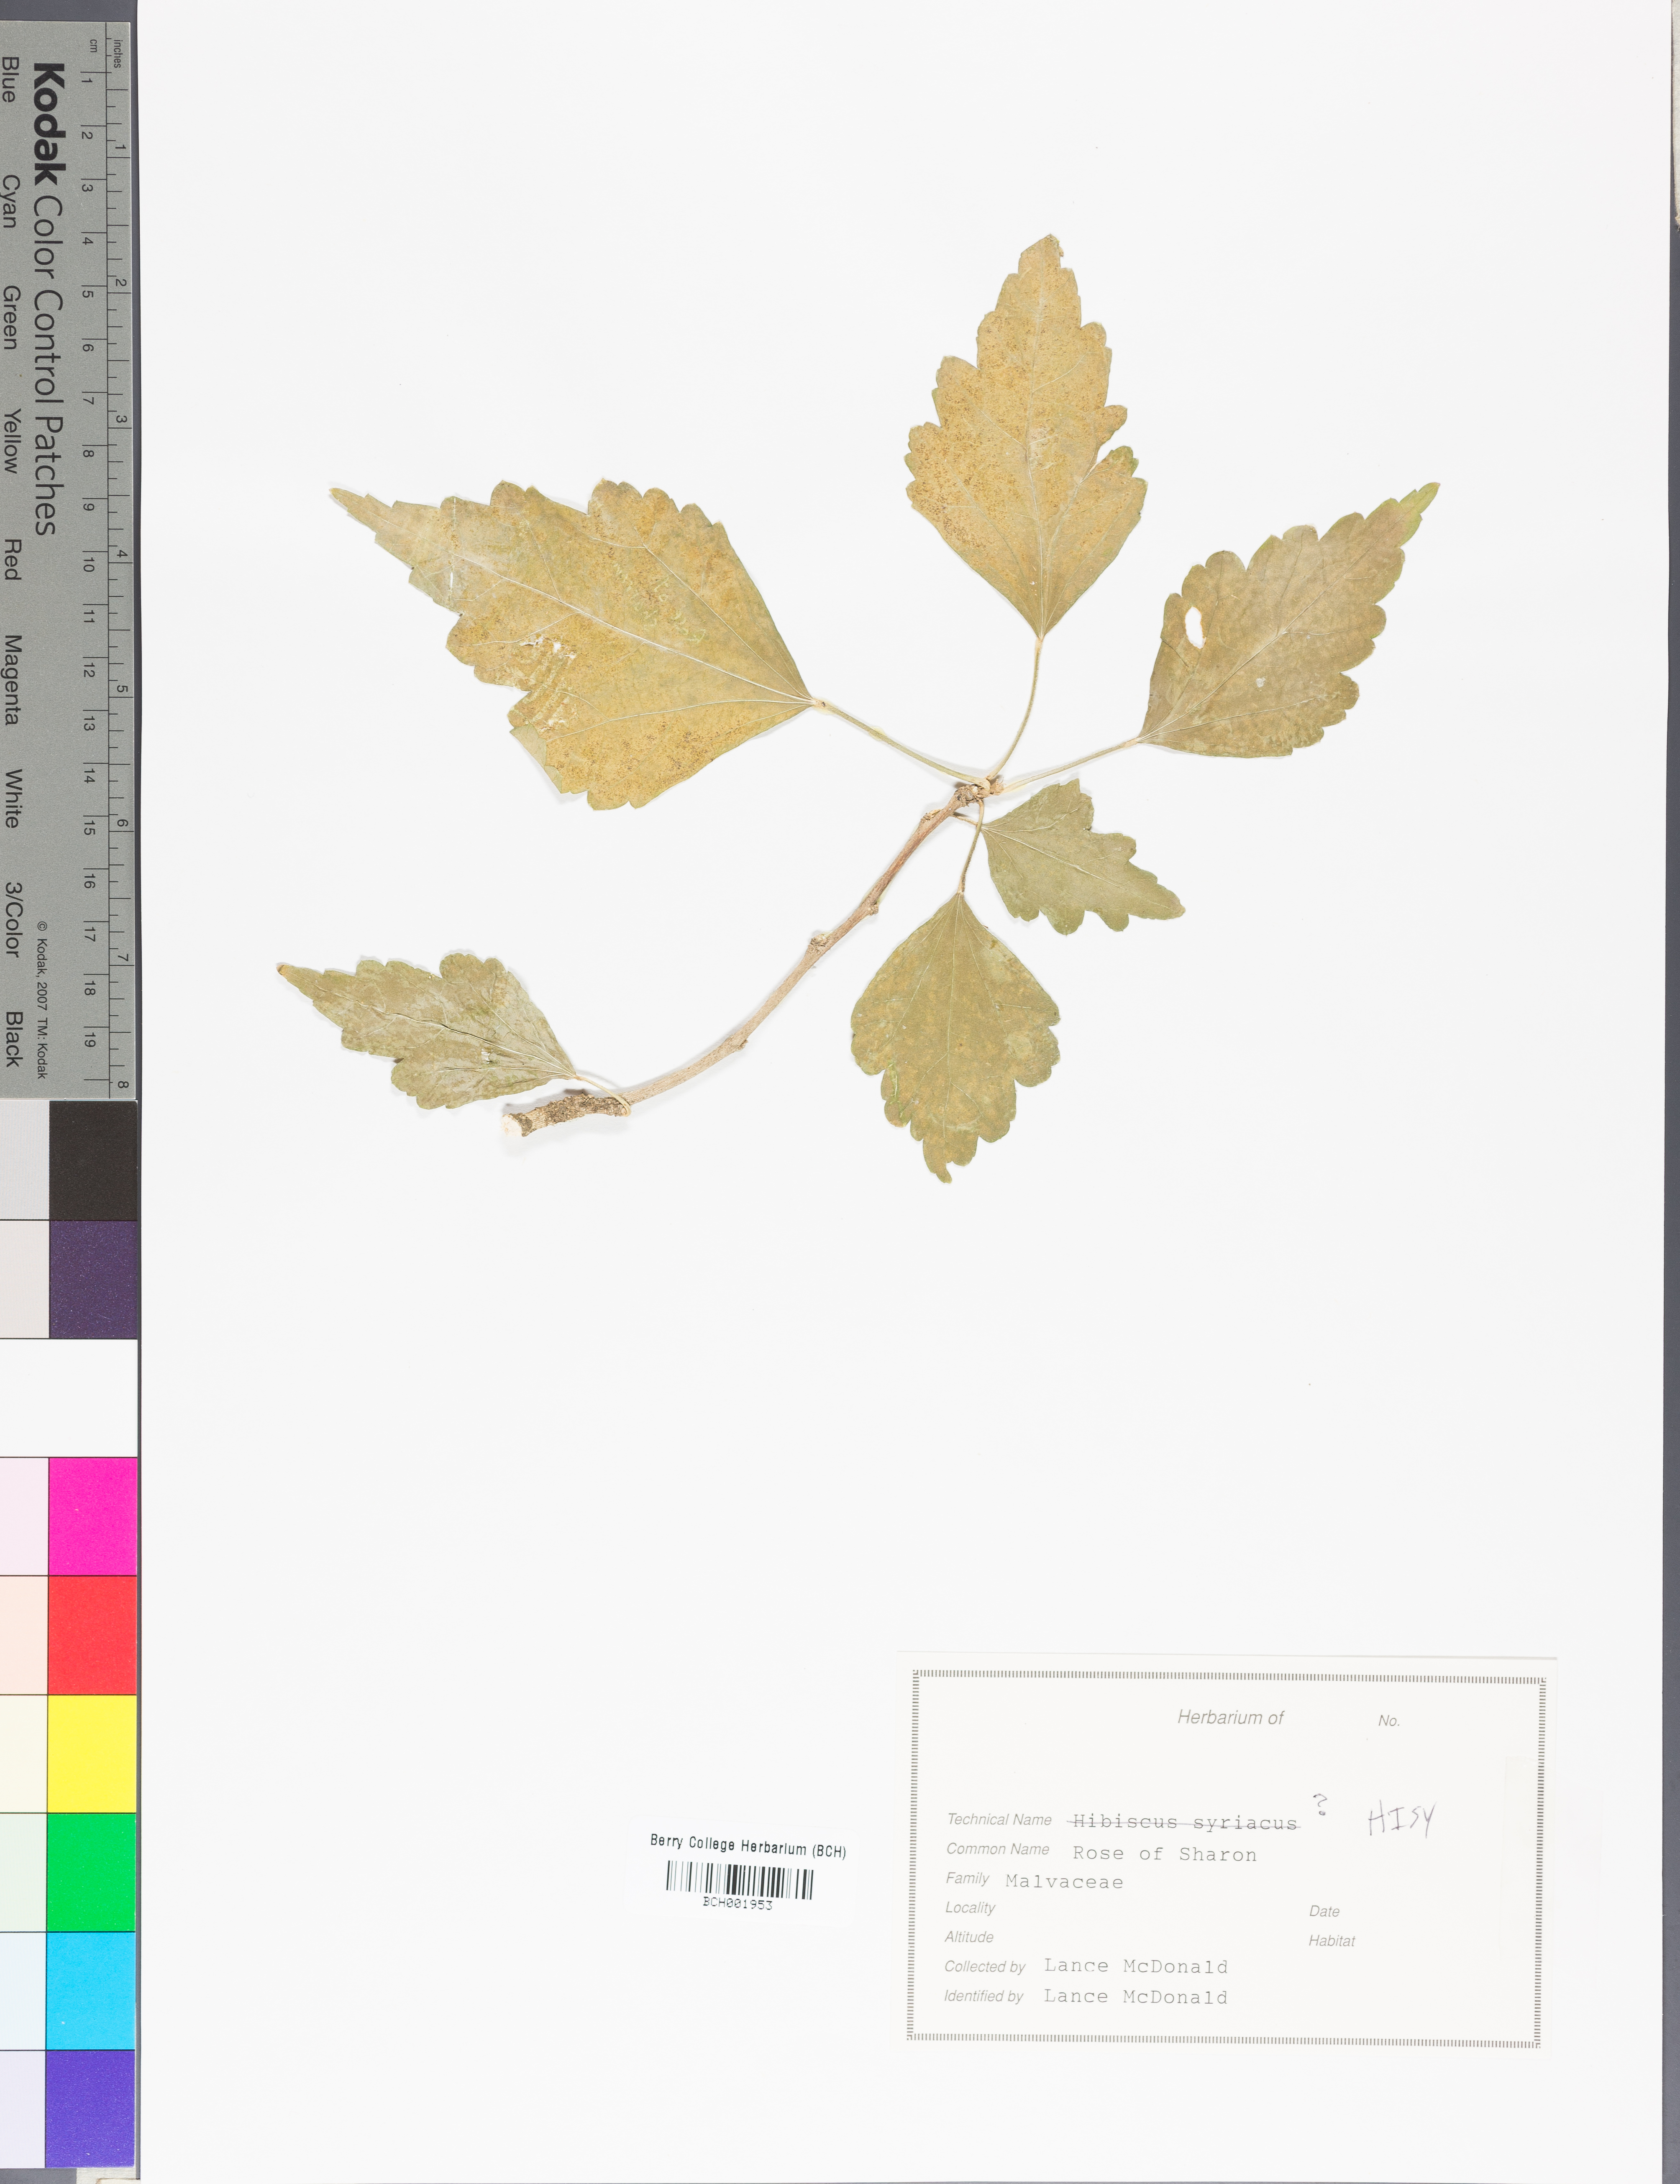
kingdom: Plantae
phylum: Tracheophyta
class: Magnoliopsida
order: Malvales
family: Malvaceae
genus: Hibiscus
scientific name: Hibiscus syriacus
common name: Syrian ketmia
